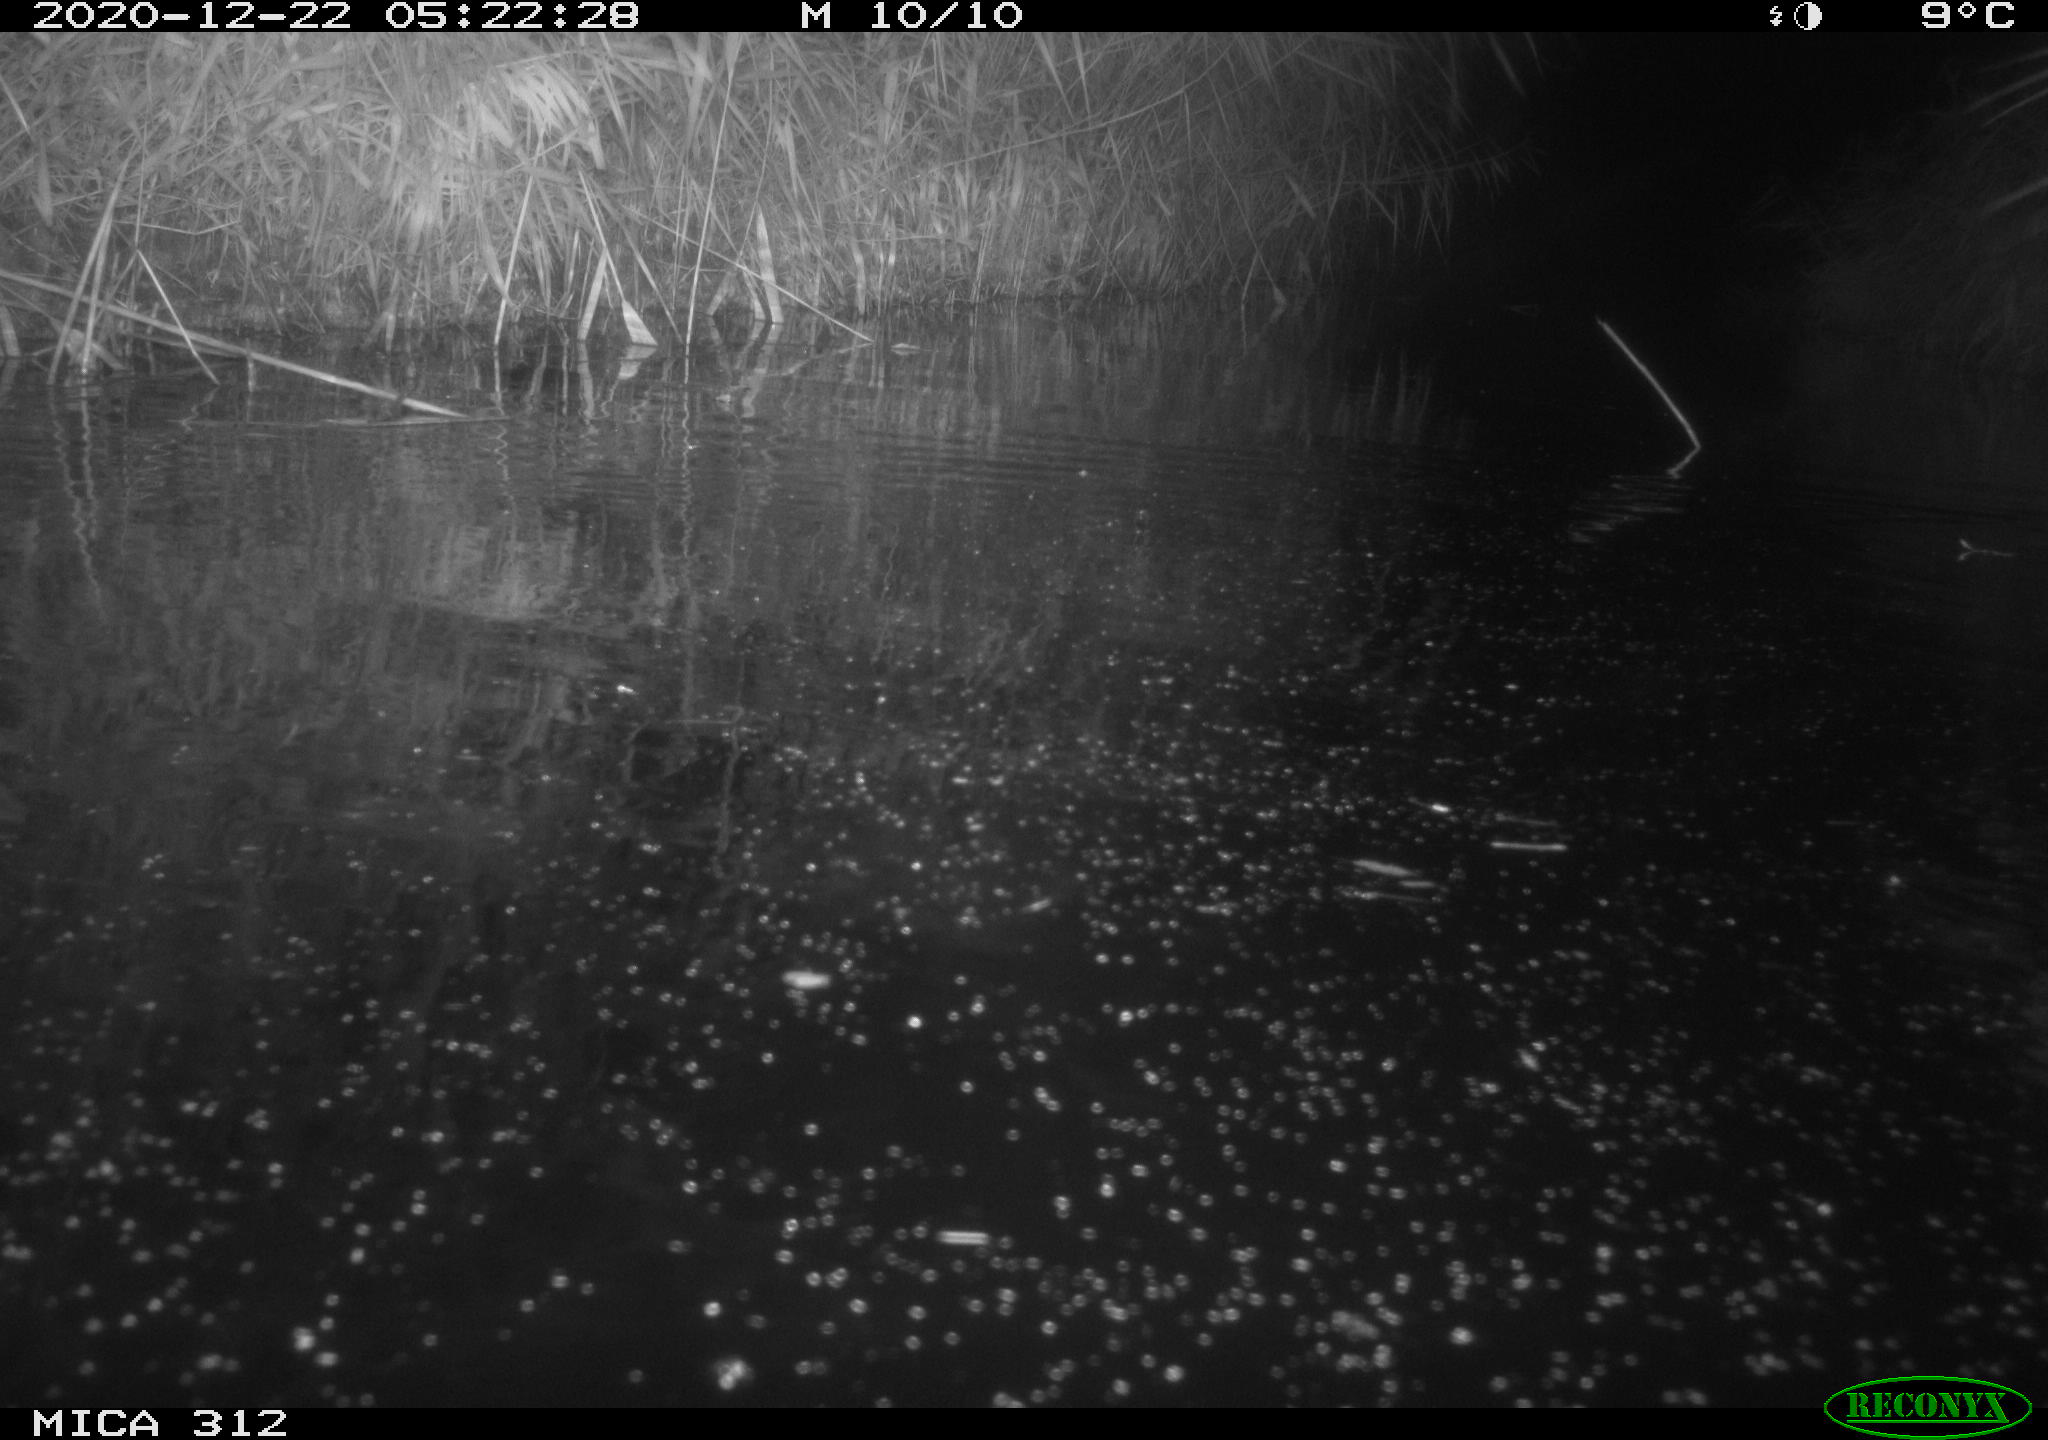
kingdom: Animalia
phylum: Chordata
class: Mammalia
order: Rodentia
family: Muridae
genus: Rattus
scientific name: Rattus norvegicus
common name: Brown rat
